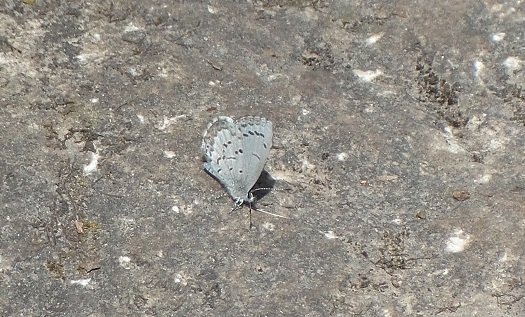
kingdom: Animalia
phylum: Arthropoda
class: Insecta
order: Lepidoptera
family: Lycaenidae
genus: Celastrina
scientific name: Celastrina
